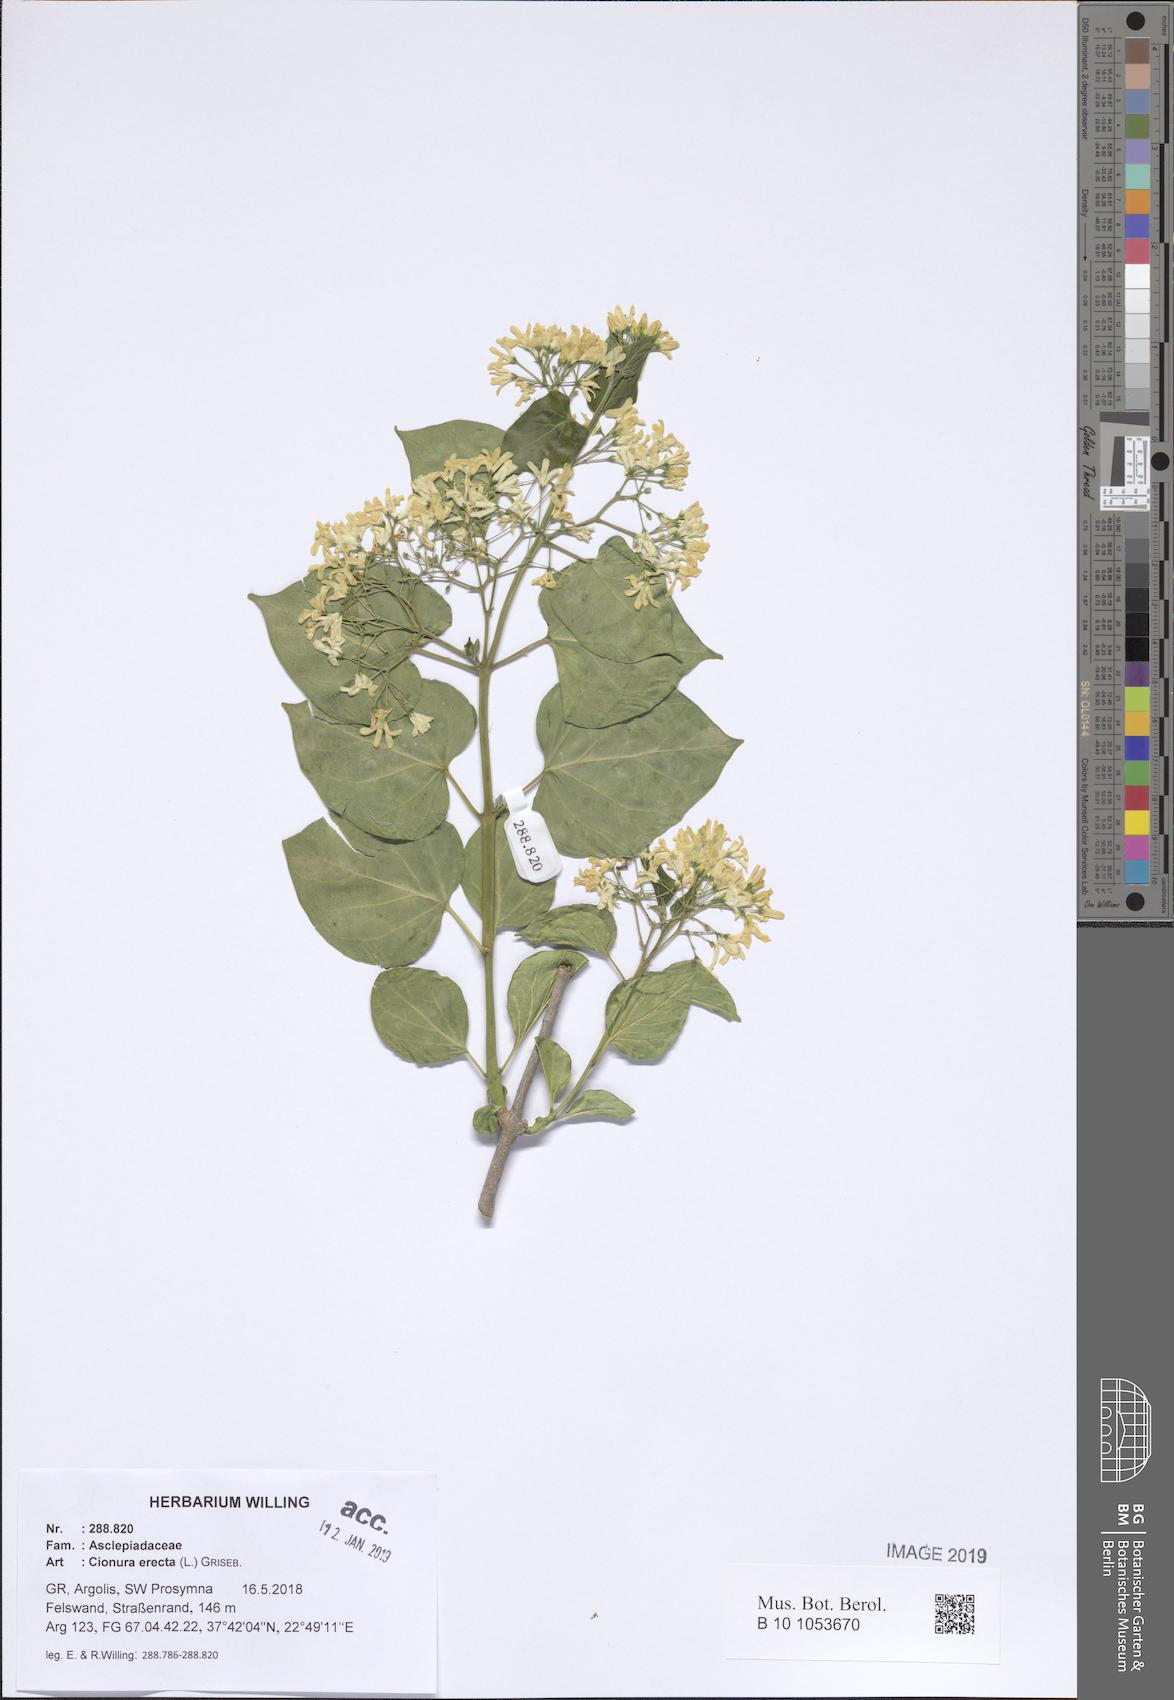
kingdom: Plantae
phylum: Tracheophyta
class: Magnoliopsida
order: Gentianales
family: Apocynaceae
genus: Cionura
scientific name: Cionura erecta
